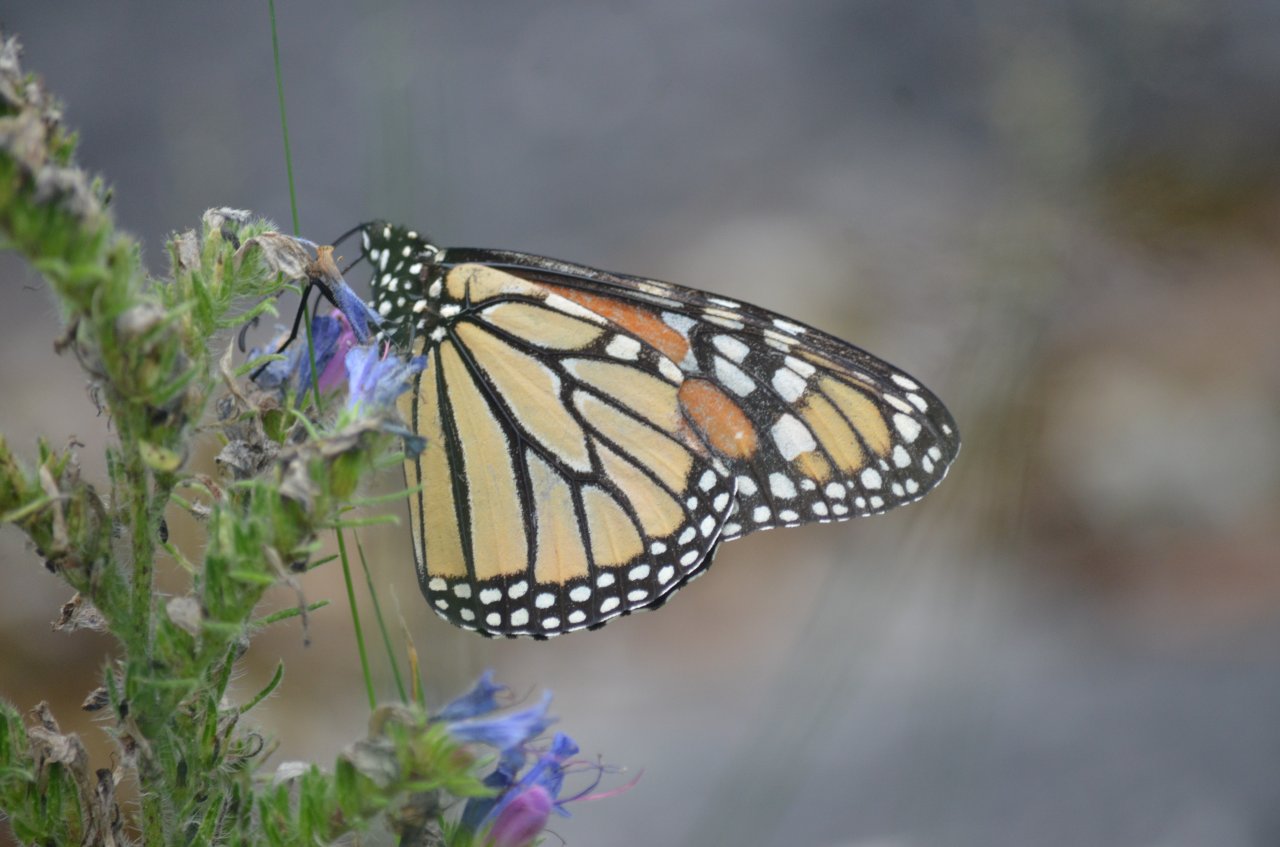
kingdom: Animalia
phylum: Arthropoda
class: Insecta
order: Lepidoptera
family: Nymphalidae
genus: Danaus
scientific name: Danaus plexippus
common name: Monarch
